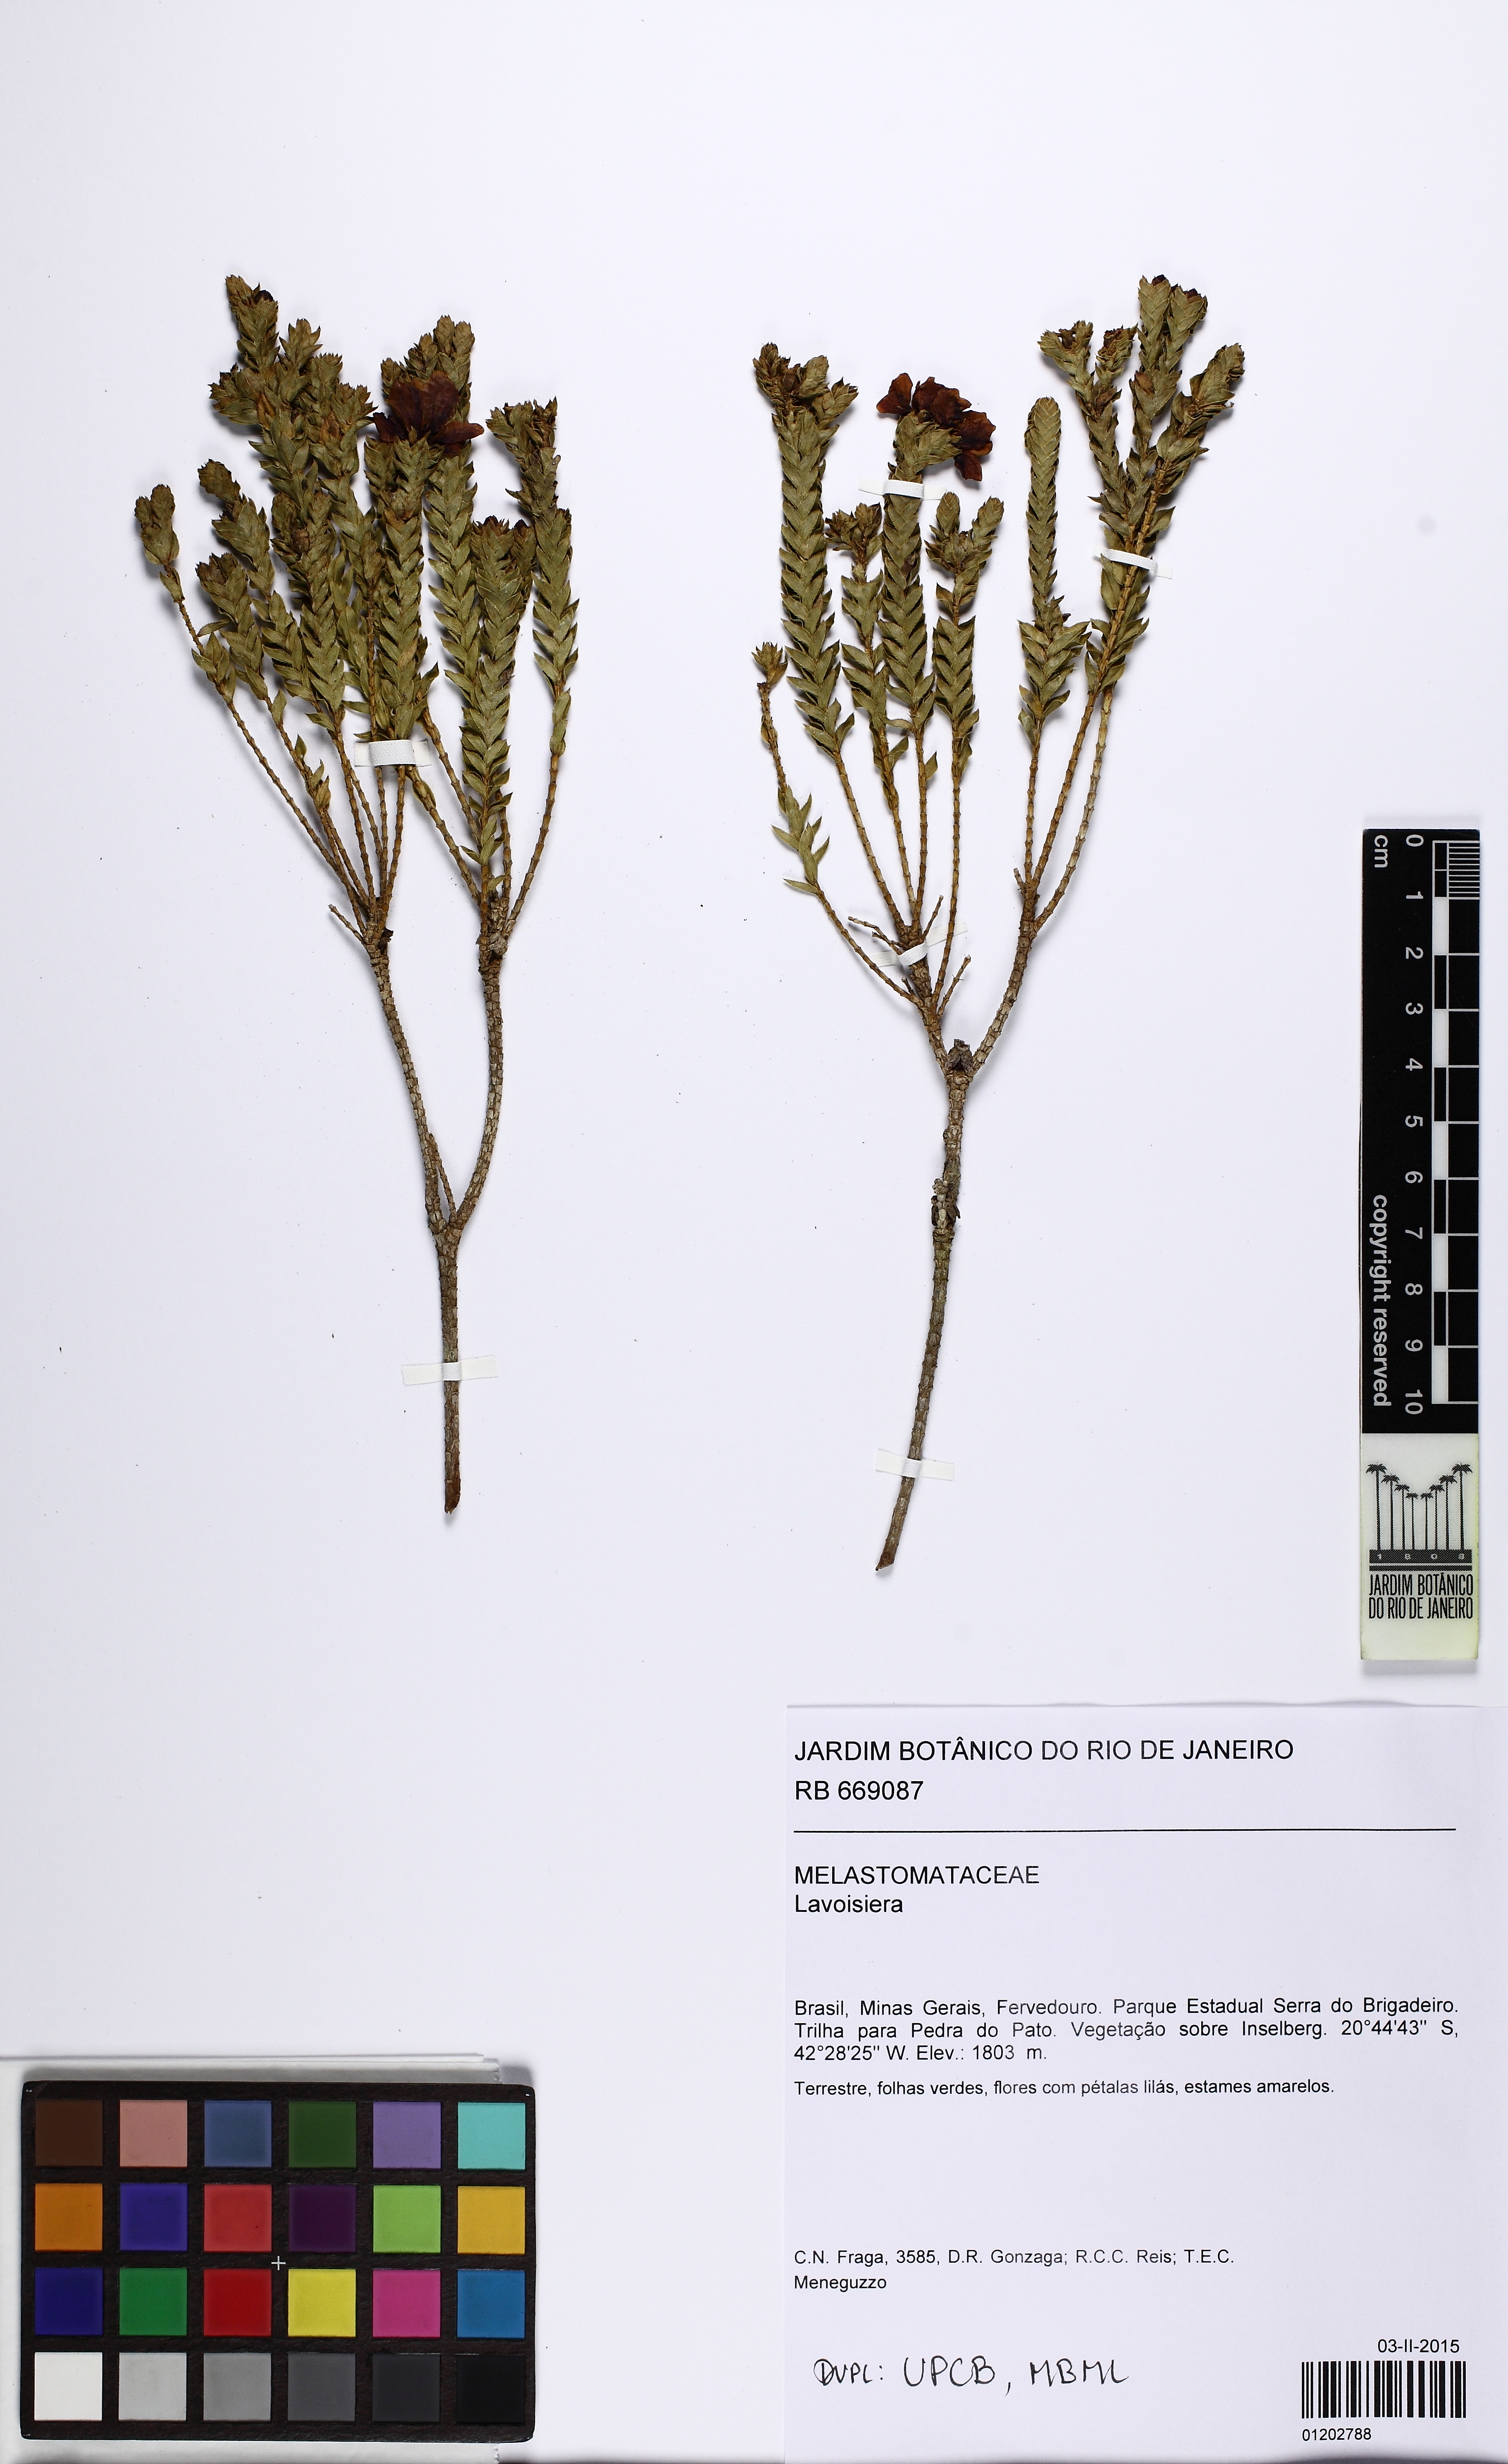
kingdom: Plantae
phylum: Tracheophyta
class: Magnoliopsida
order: Myrtales
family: Melastomataceae
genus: Microlicia
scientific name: Microlicia
